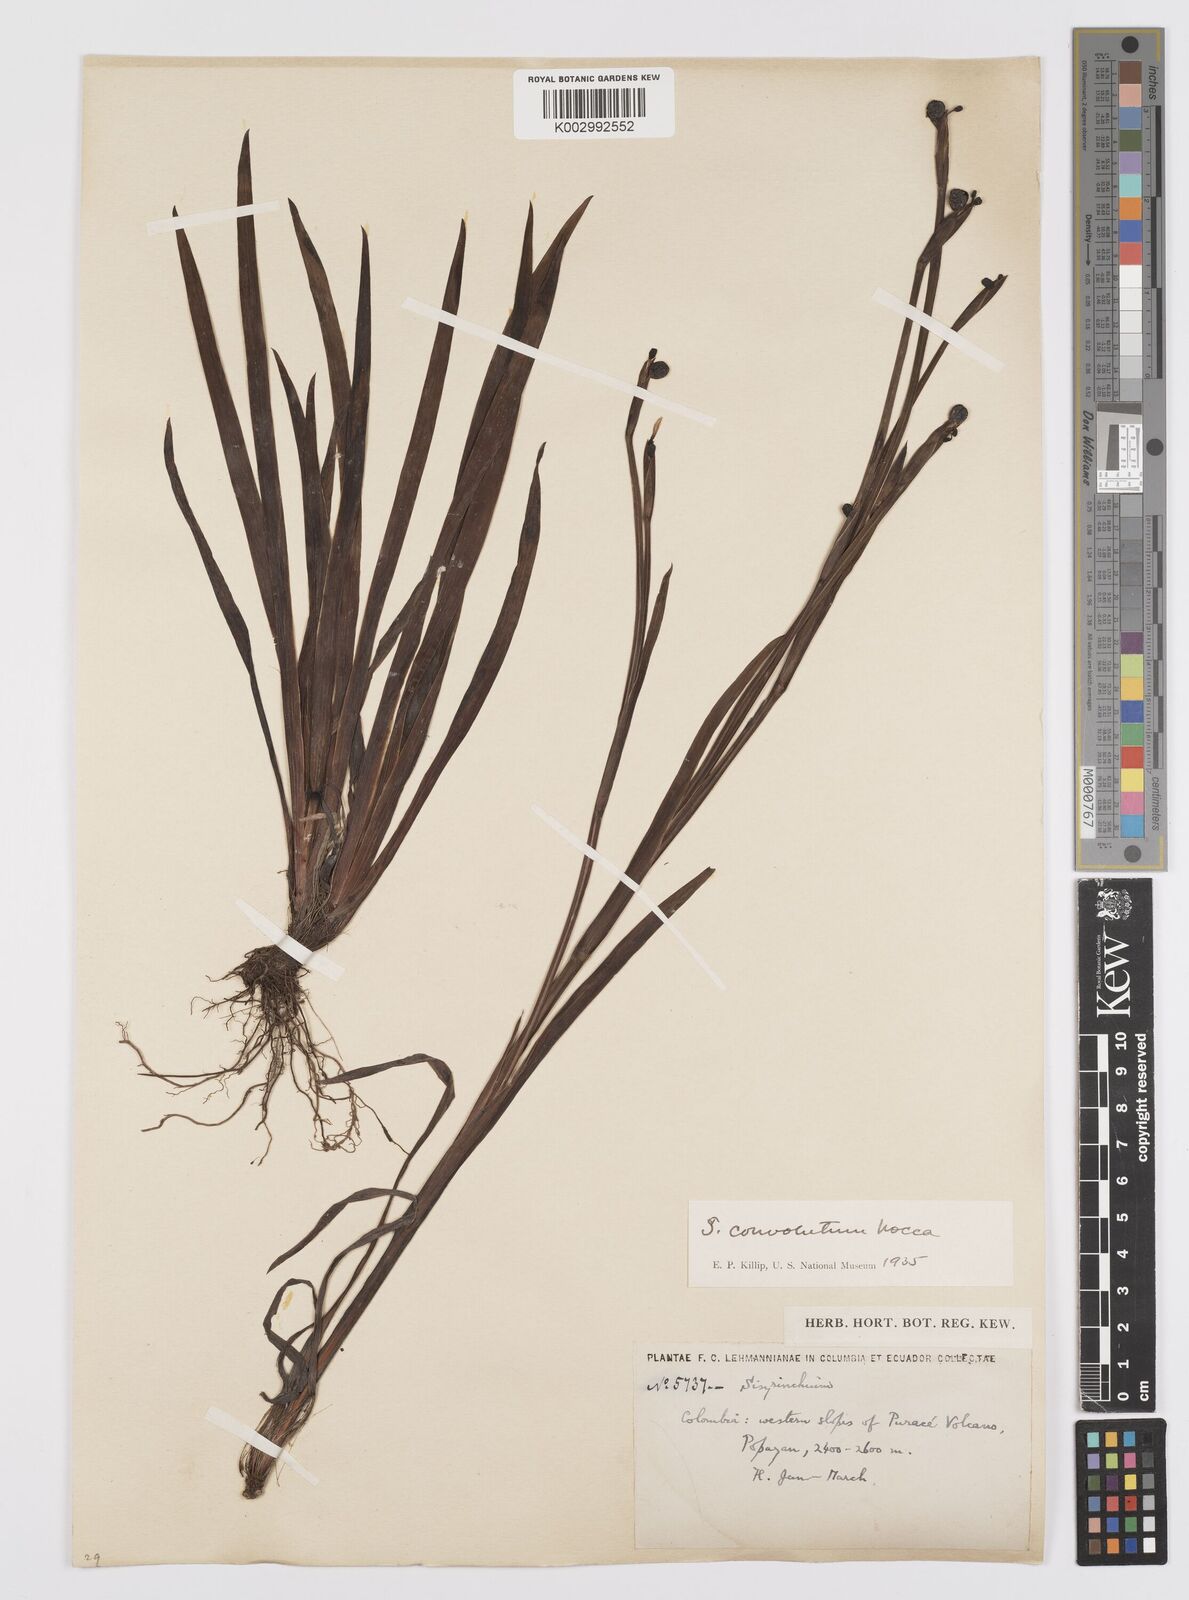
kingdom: Plantae
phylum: Tracheophyta
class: Liliopsida
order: Asparagales
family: Iridaceae
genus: Sisyrinchium
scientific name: Sisyrinchium convolutum
